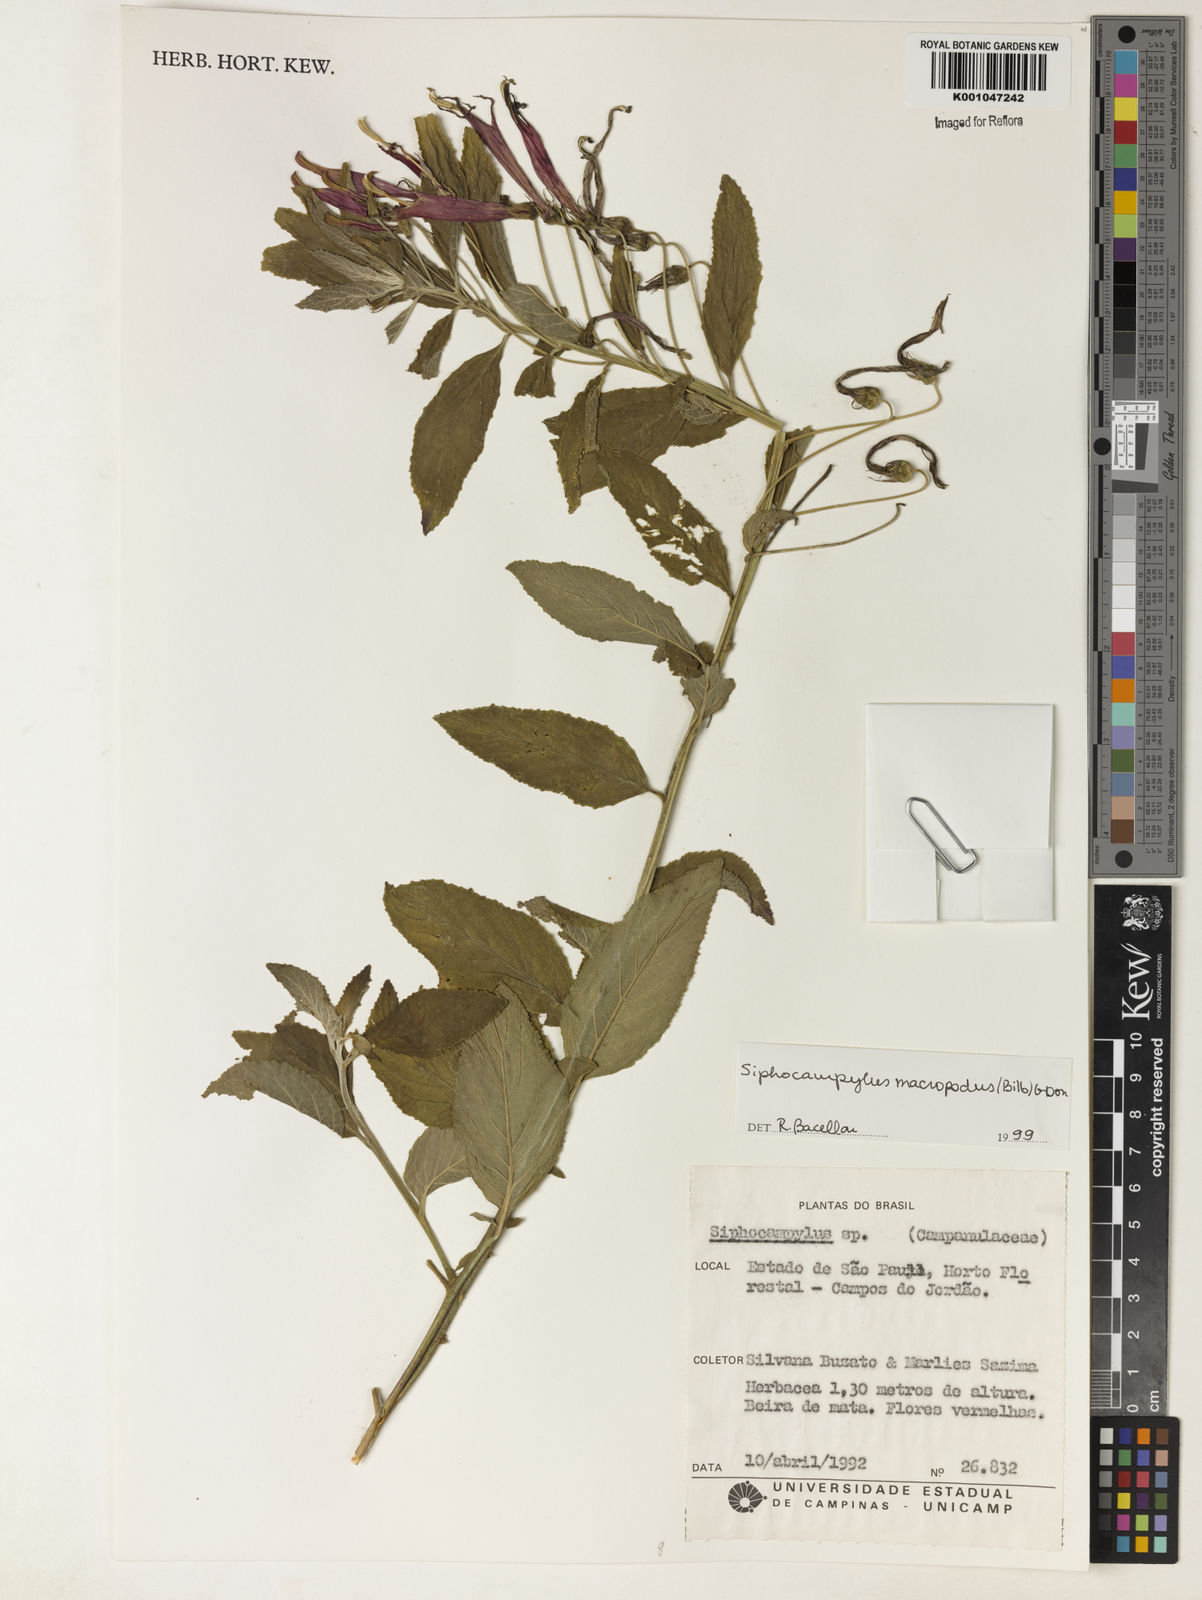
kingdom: Plantae
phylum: Tracheophyta
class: Magnoliopsida
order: Asterales
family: Campanulaceae
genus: Siphocampylus
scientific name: Siphocampylus macropodus
